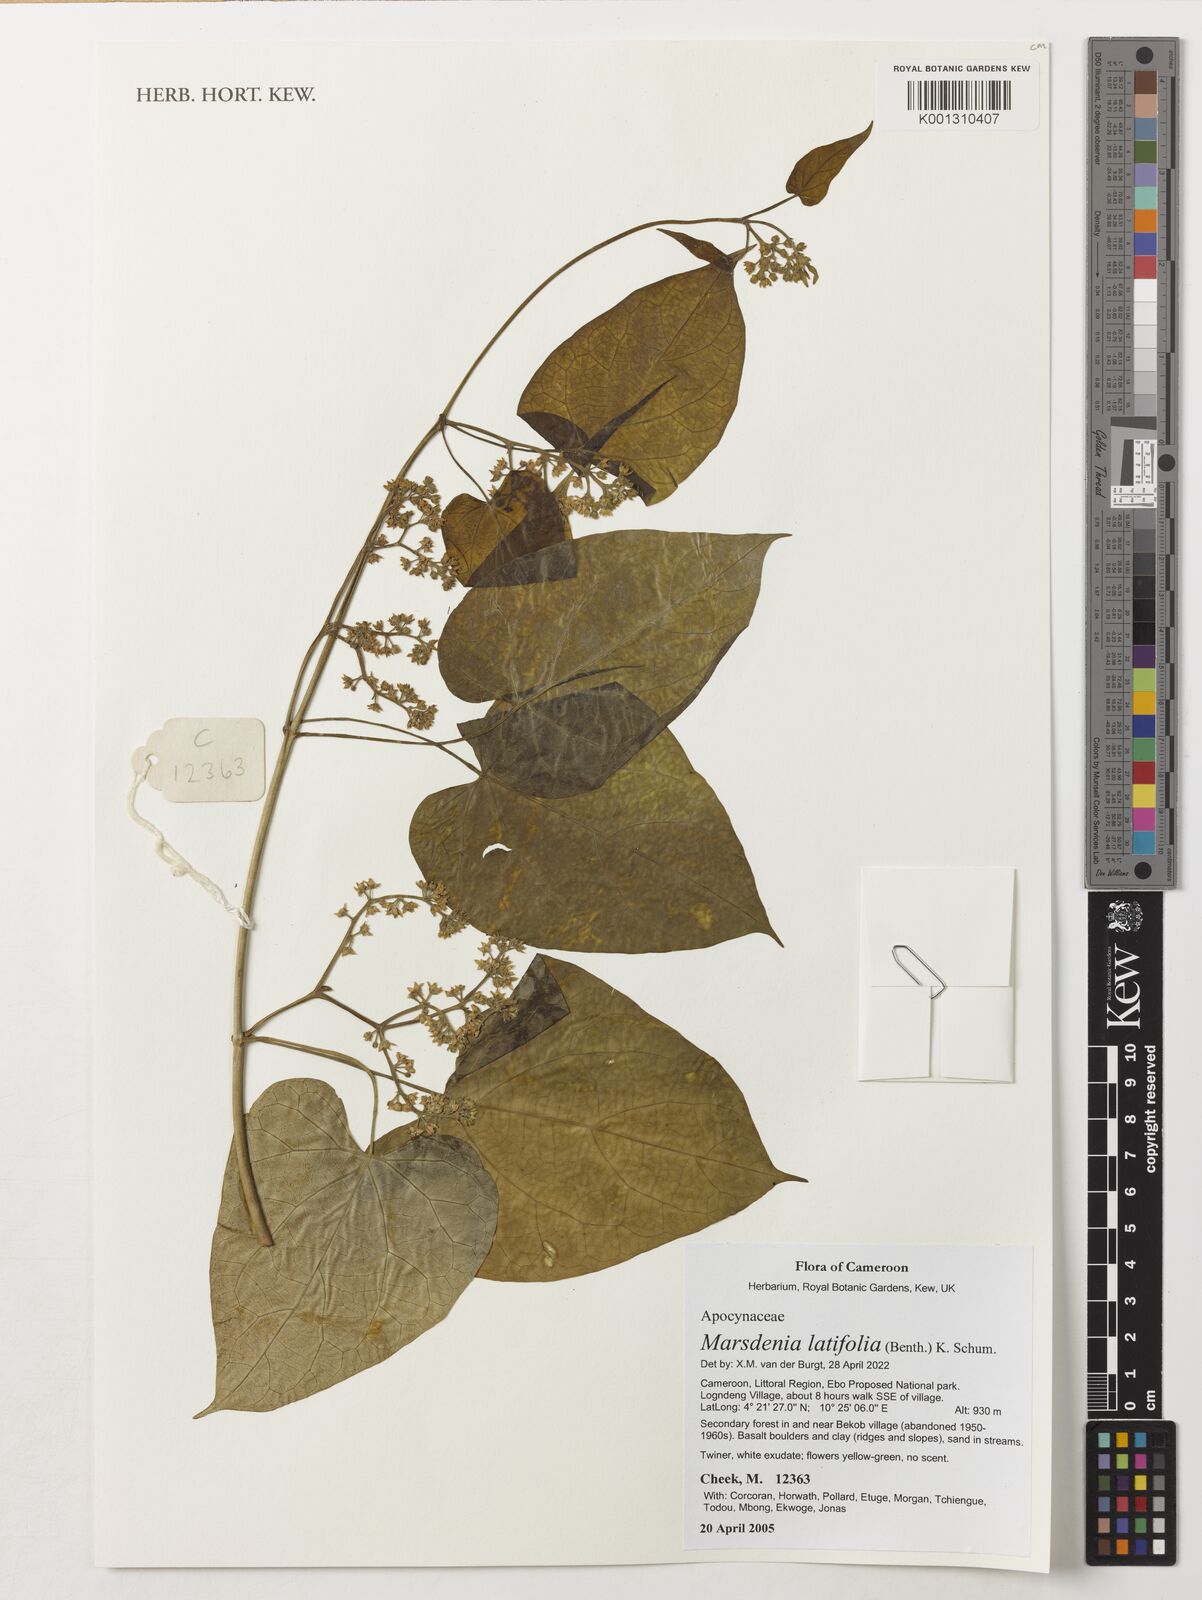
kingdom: Plantae
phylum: Tracheophyta
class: Magnoliopsida
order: Gentianales
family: Apocynaceae
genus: Gongronemopsis
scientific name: Gongronemopsis latifolia
